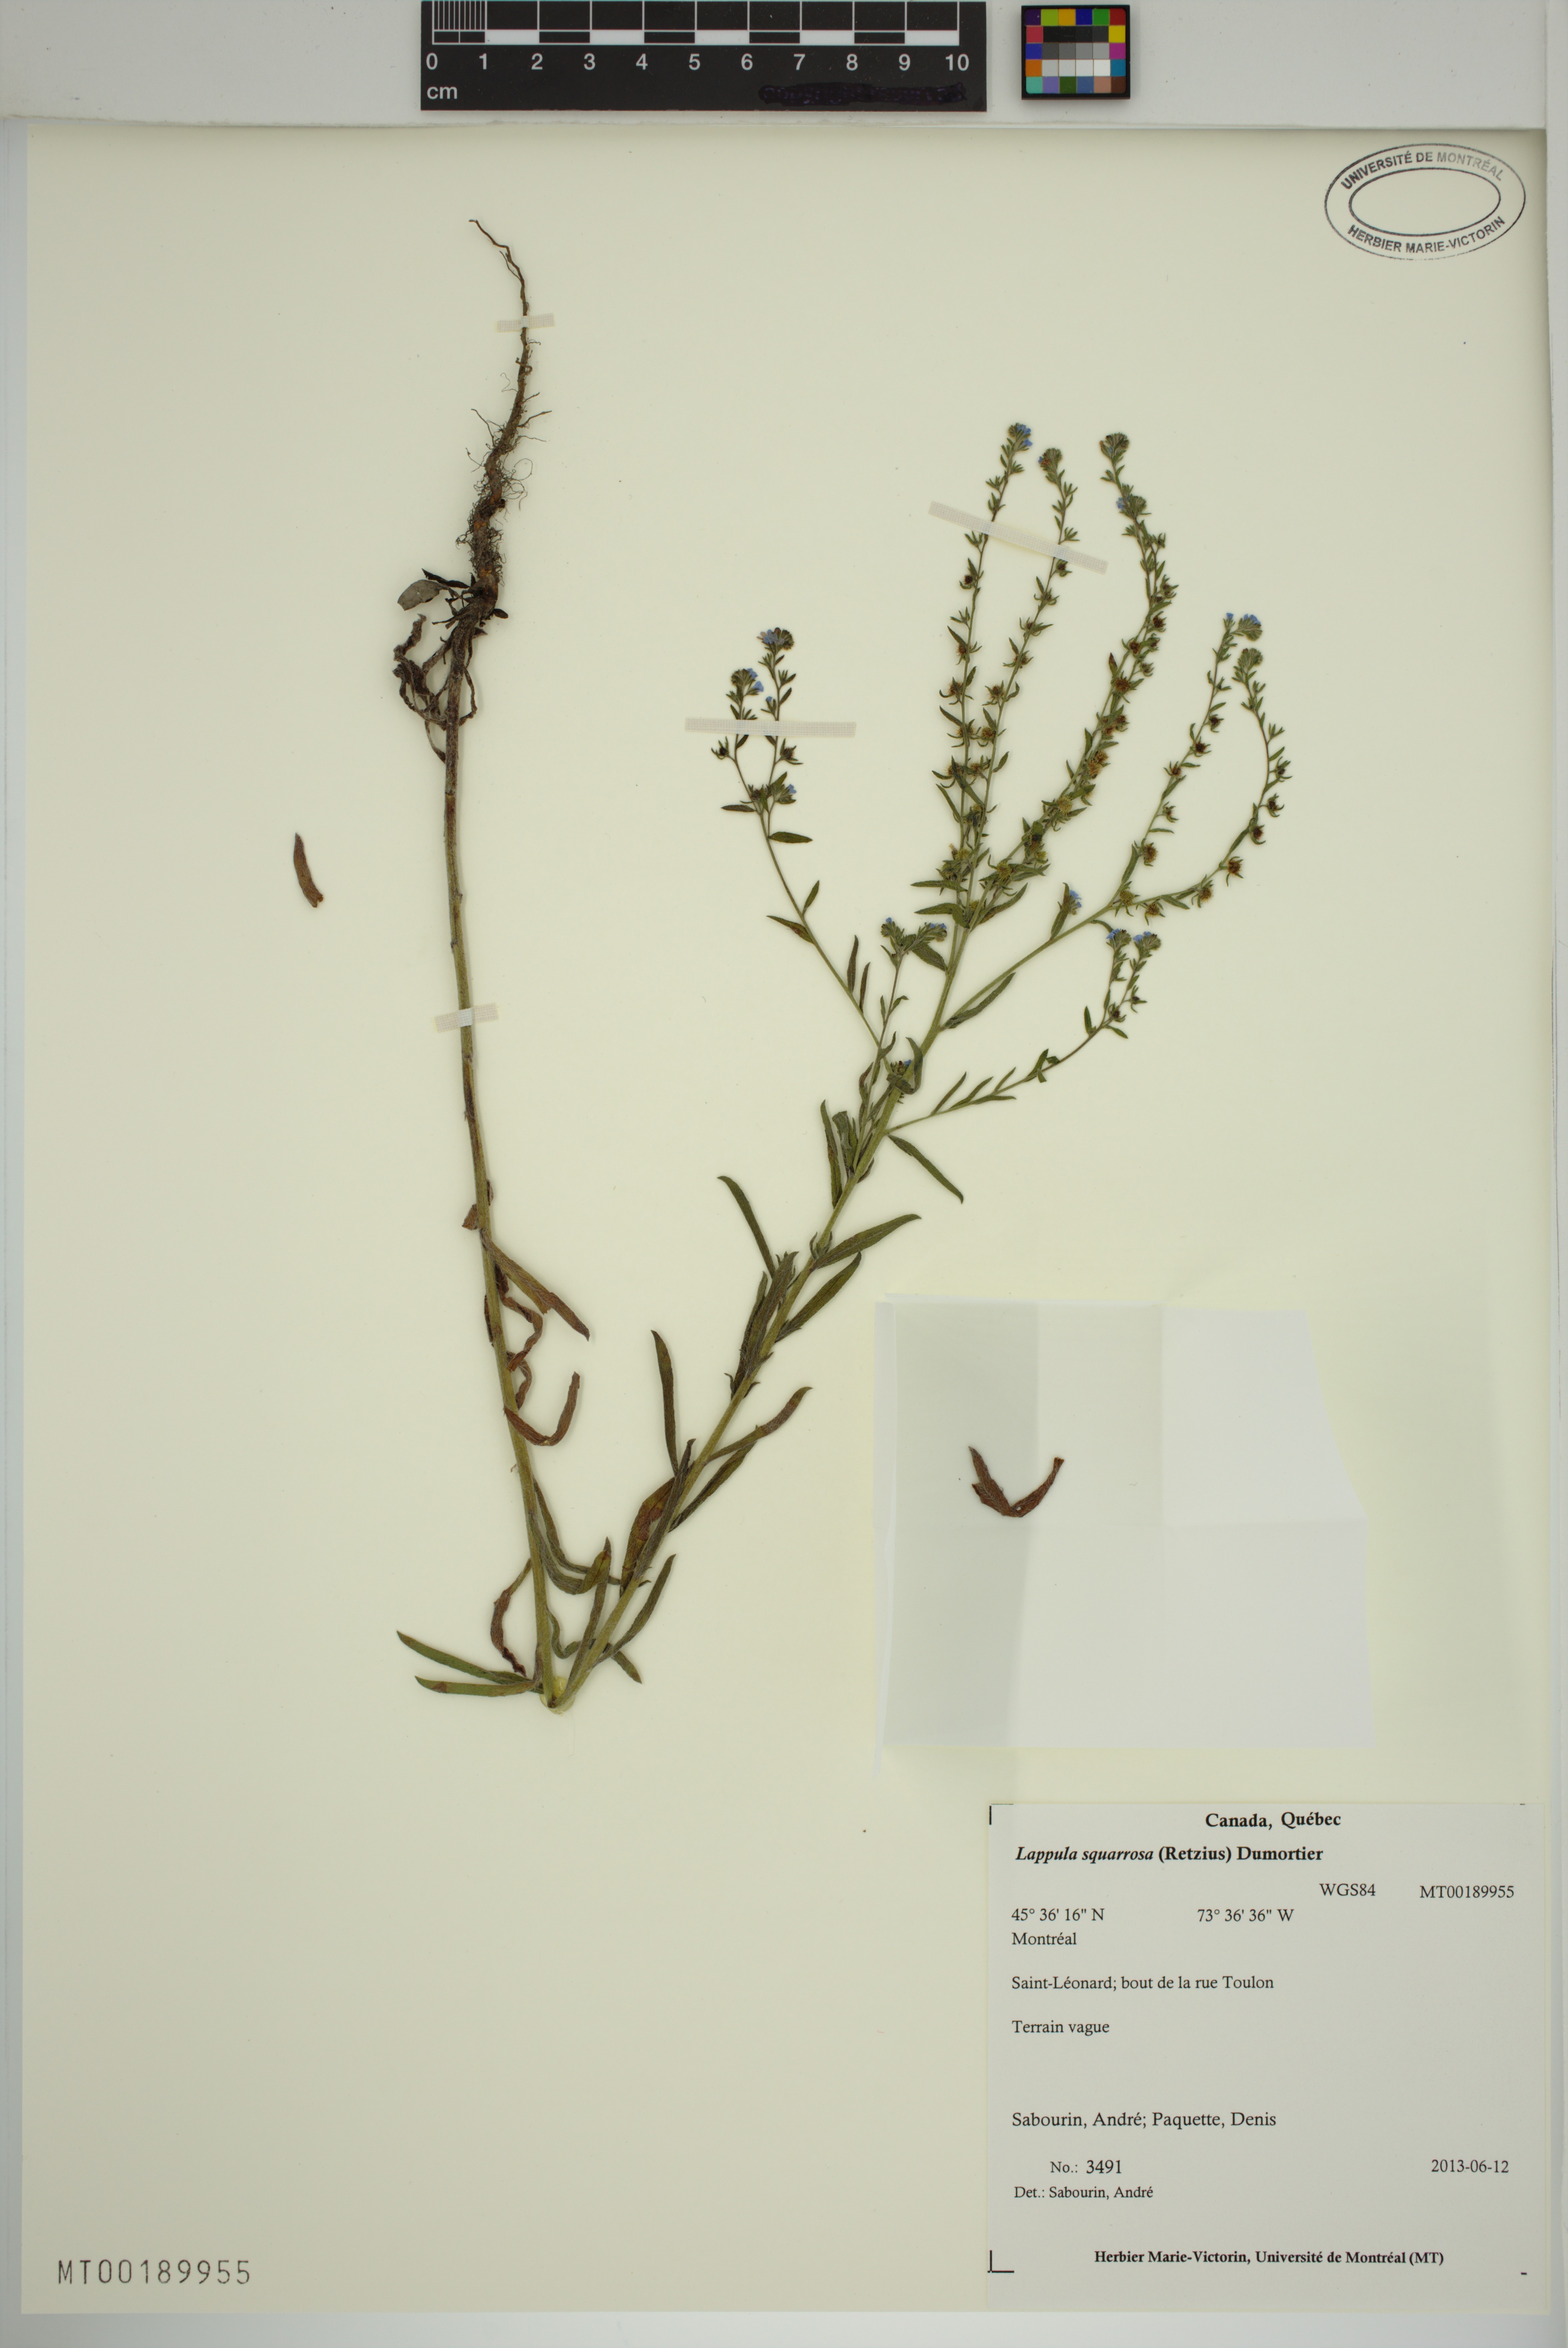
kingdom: Plantae
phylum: Tracheophyta
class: Magnoliopsida
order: Boraginales
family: Boraginaceae
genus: Lappula
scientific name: Lappula squarrosa
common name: European stickseed
